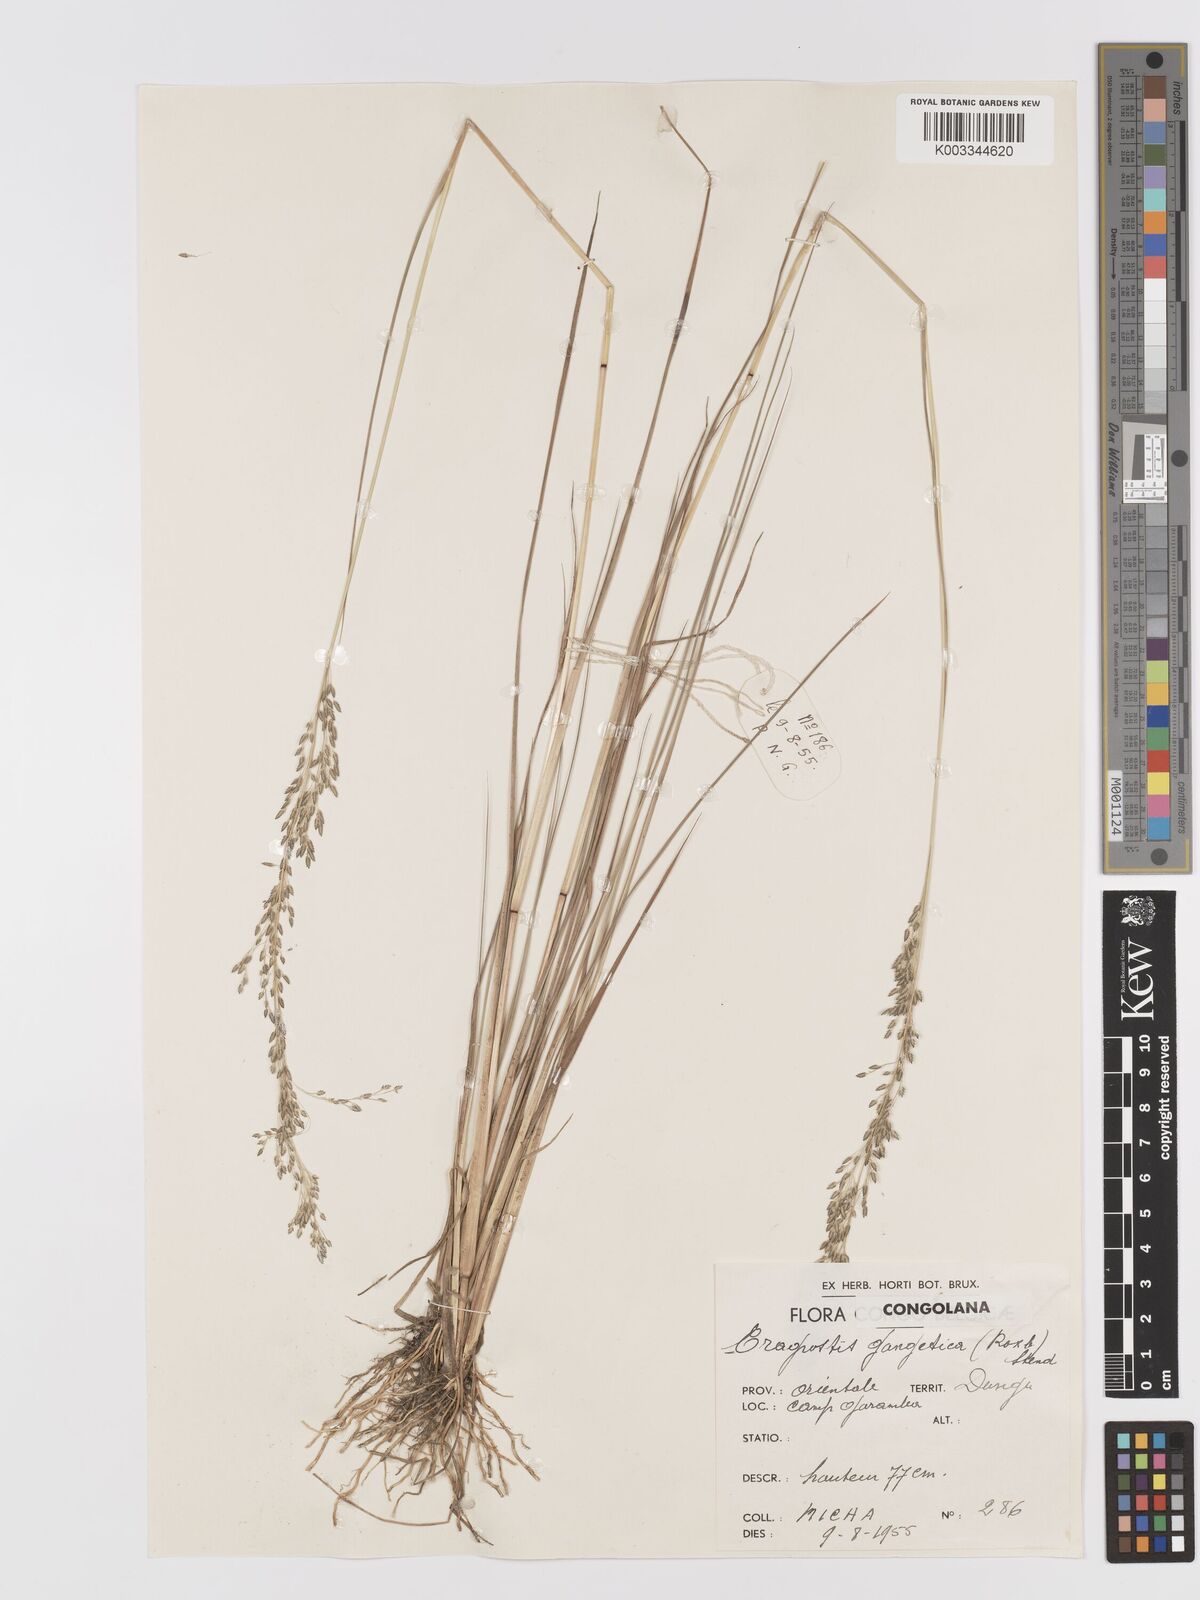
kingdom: Plantae
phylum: Tracheophyta
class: Liliopsida
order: Poales
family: Poaceae
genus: Eragrostis
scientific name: Eragrostis gangetica
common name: Slimflower lovegrass
